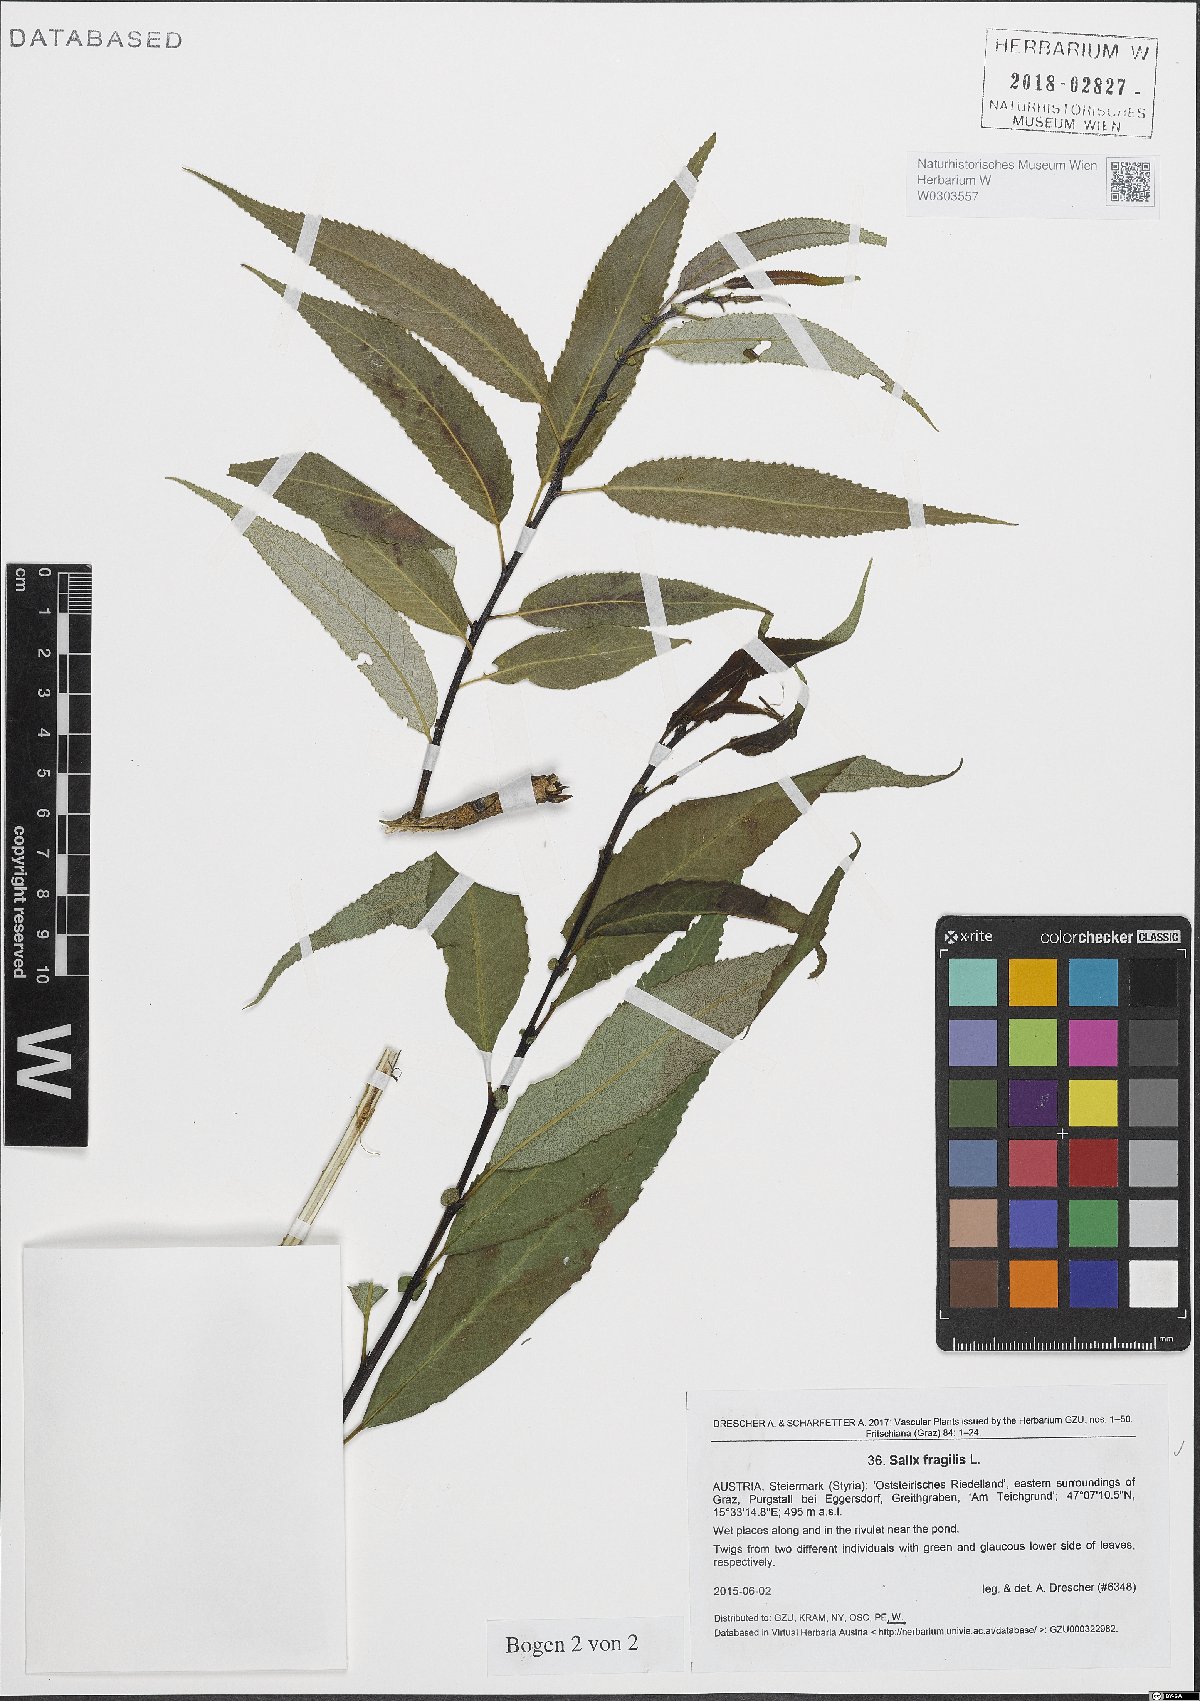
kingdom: Plantae
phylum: Tracheophyta
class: Magnoliopsida
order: Malpighiales
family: Salicaceae
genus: Salix
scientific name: Salix fragilis
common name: Crack willow
